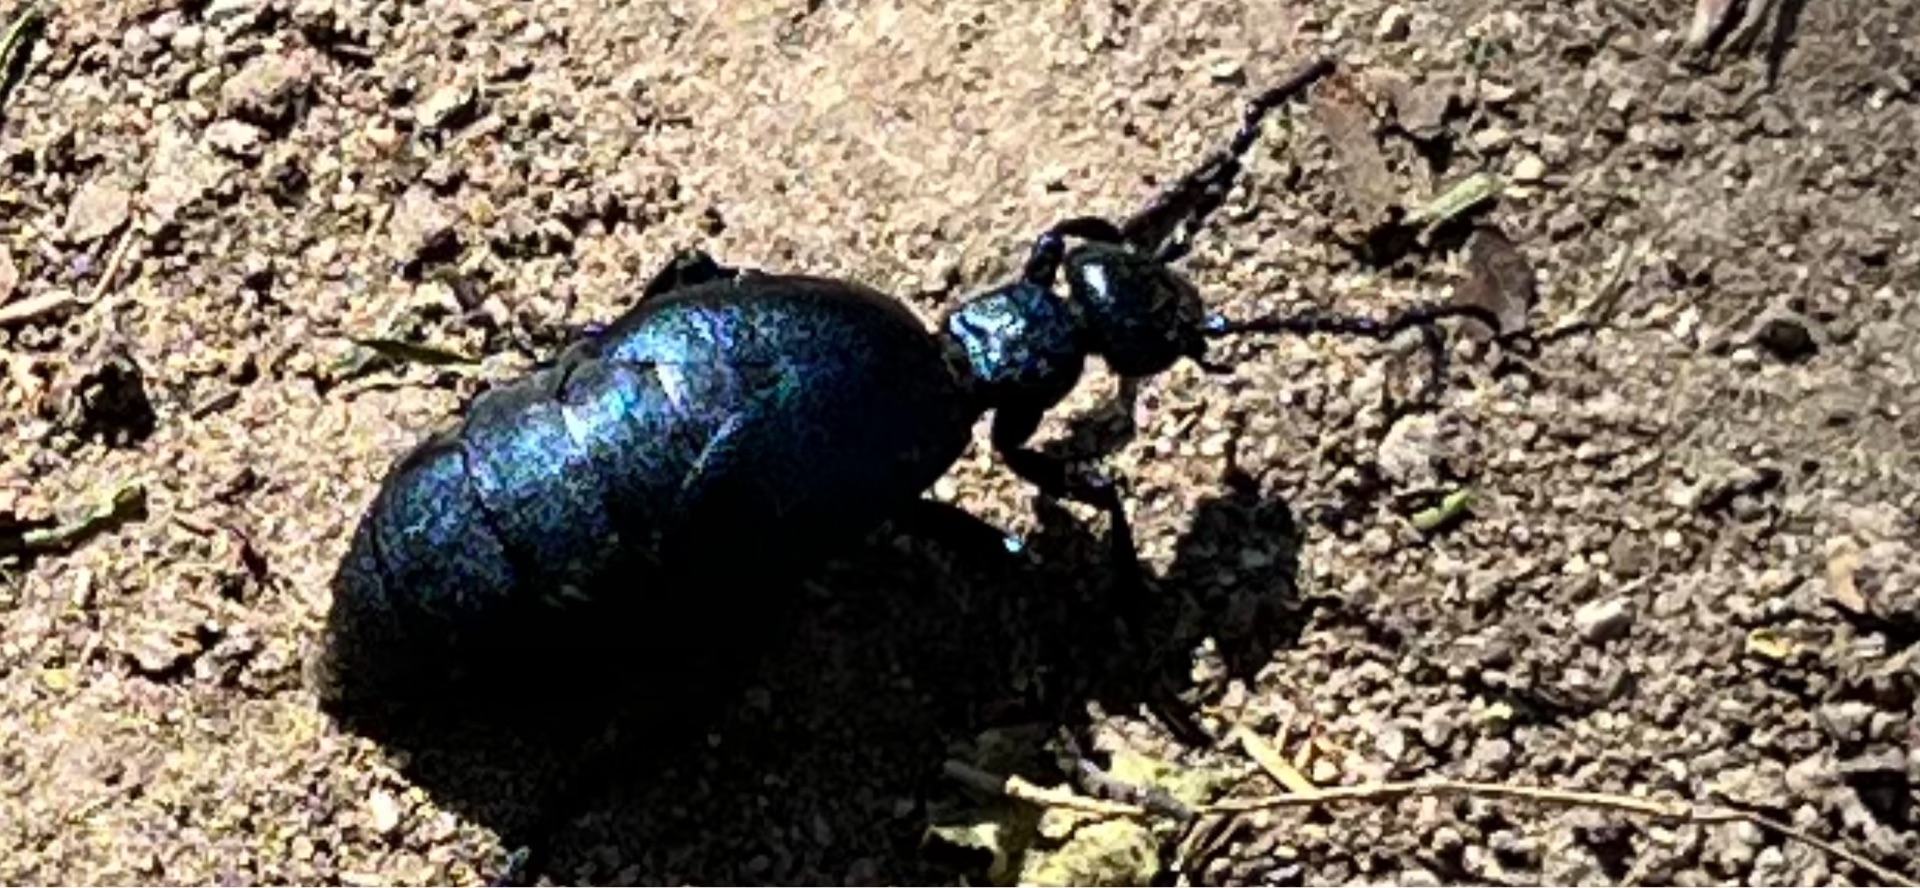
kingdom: Animalia
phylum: Arthropoda
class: Insecta
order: Coleoptera
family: Meloidae
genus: Meloe
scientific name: Meloe violaceus
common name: Blå oliebille
